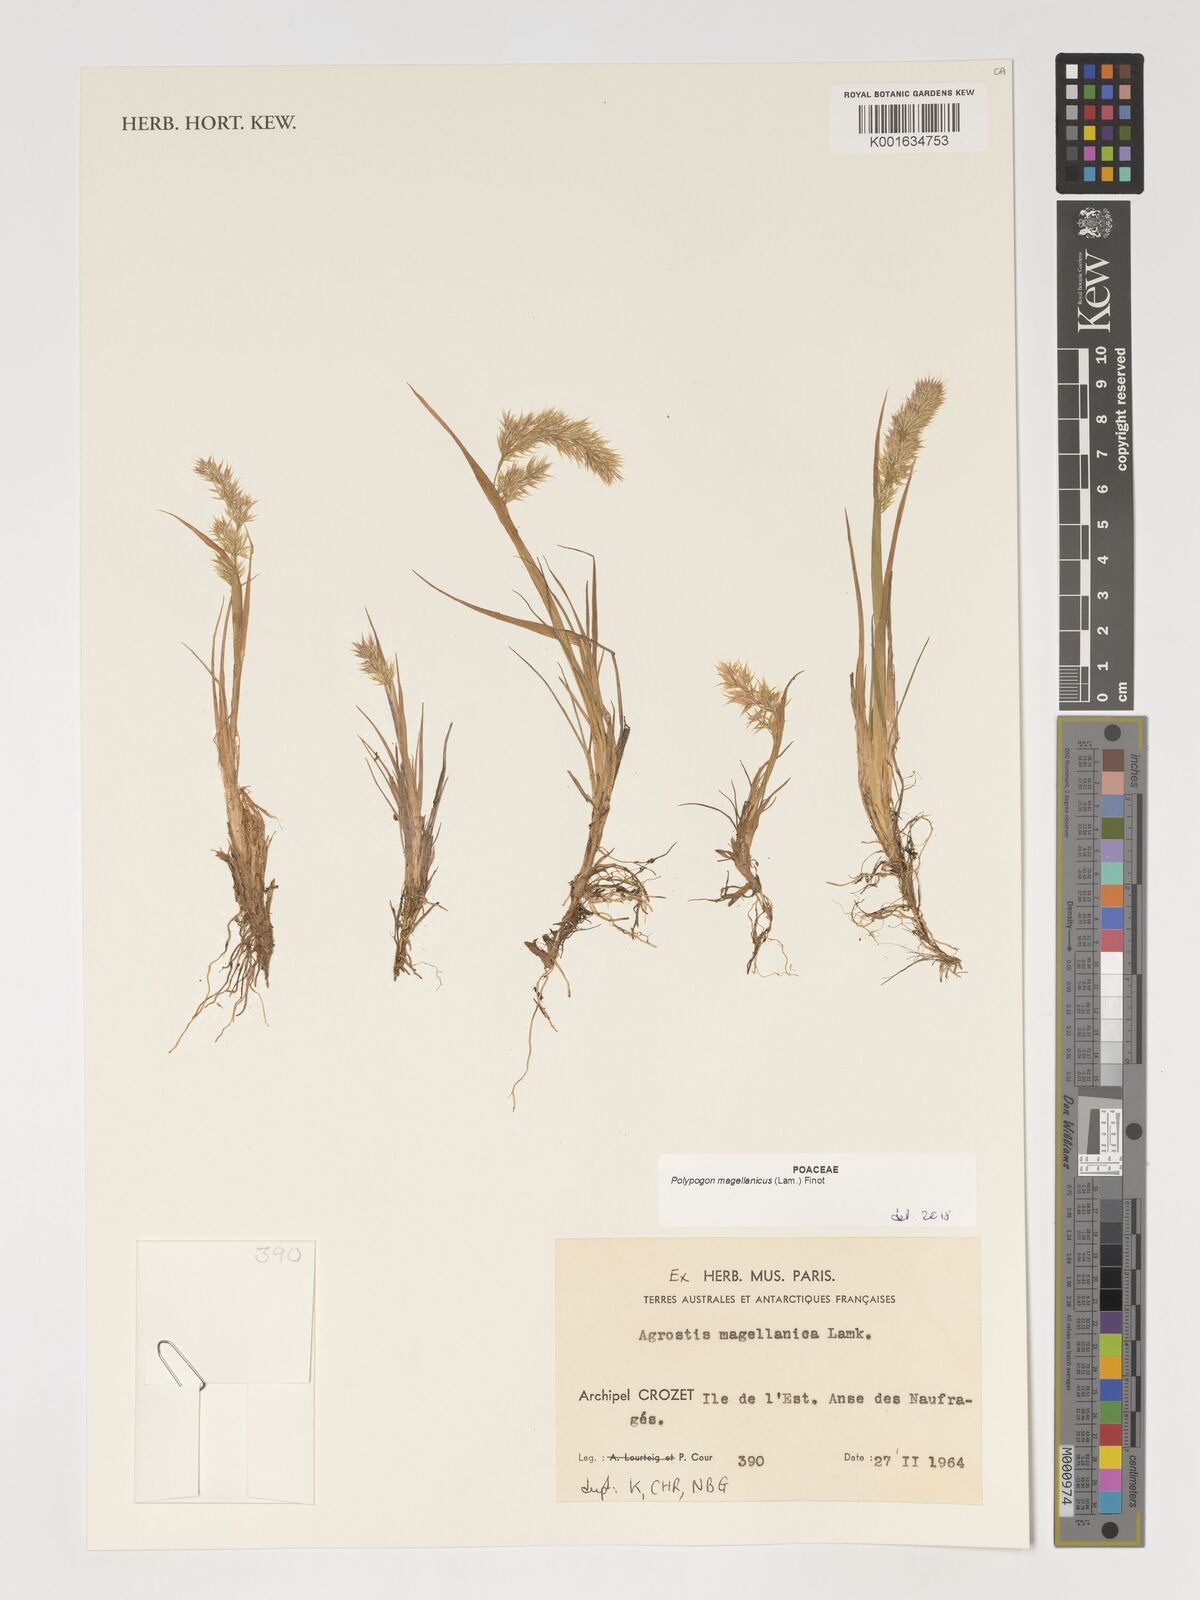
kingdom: Plantae
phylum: Tracheophyta
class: Liliopsida
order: Poales
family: Poaceae
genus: Polypogon
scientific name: Polypogon magellanicus
